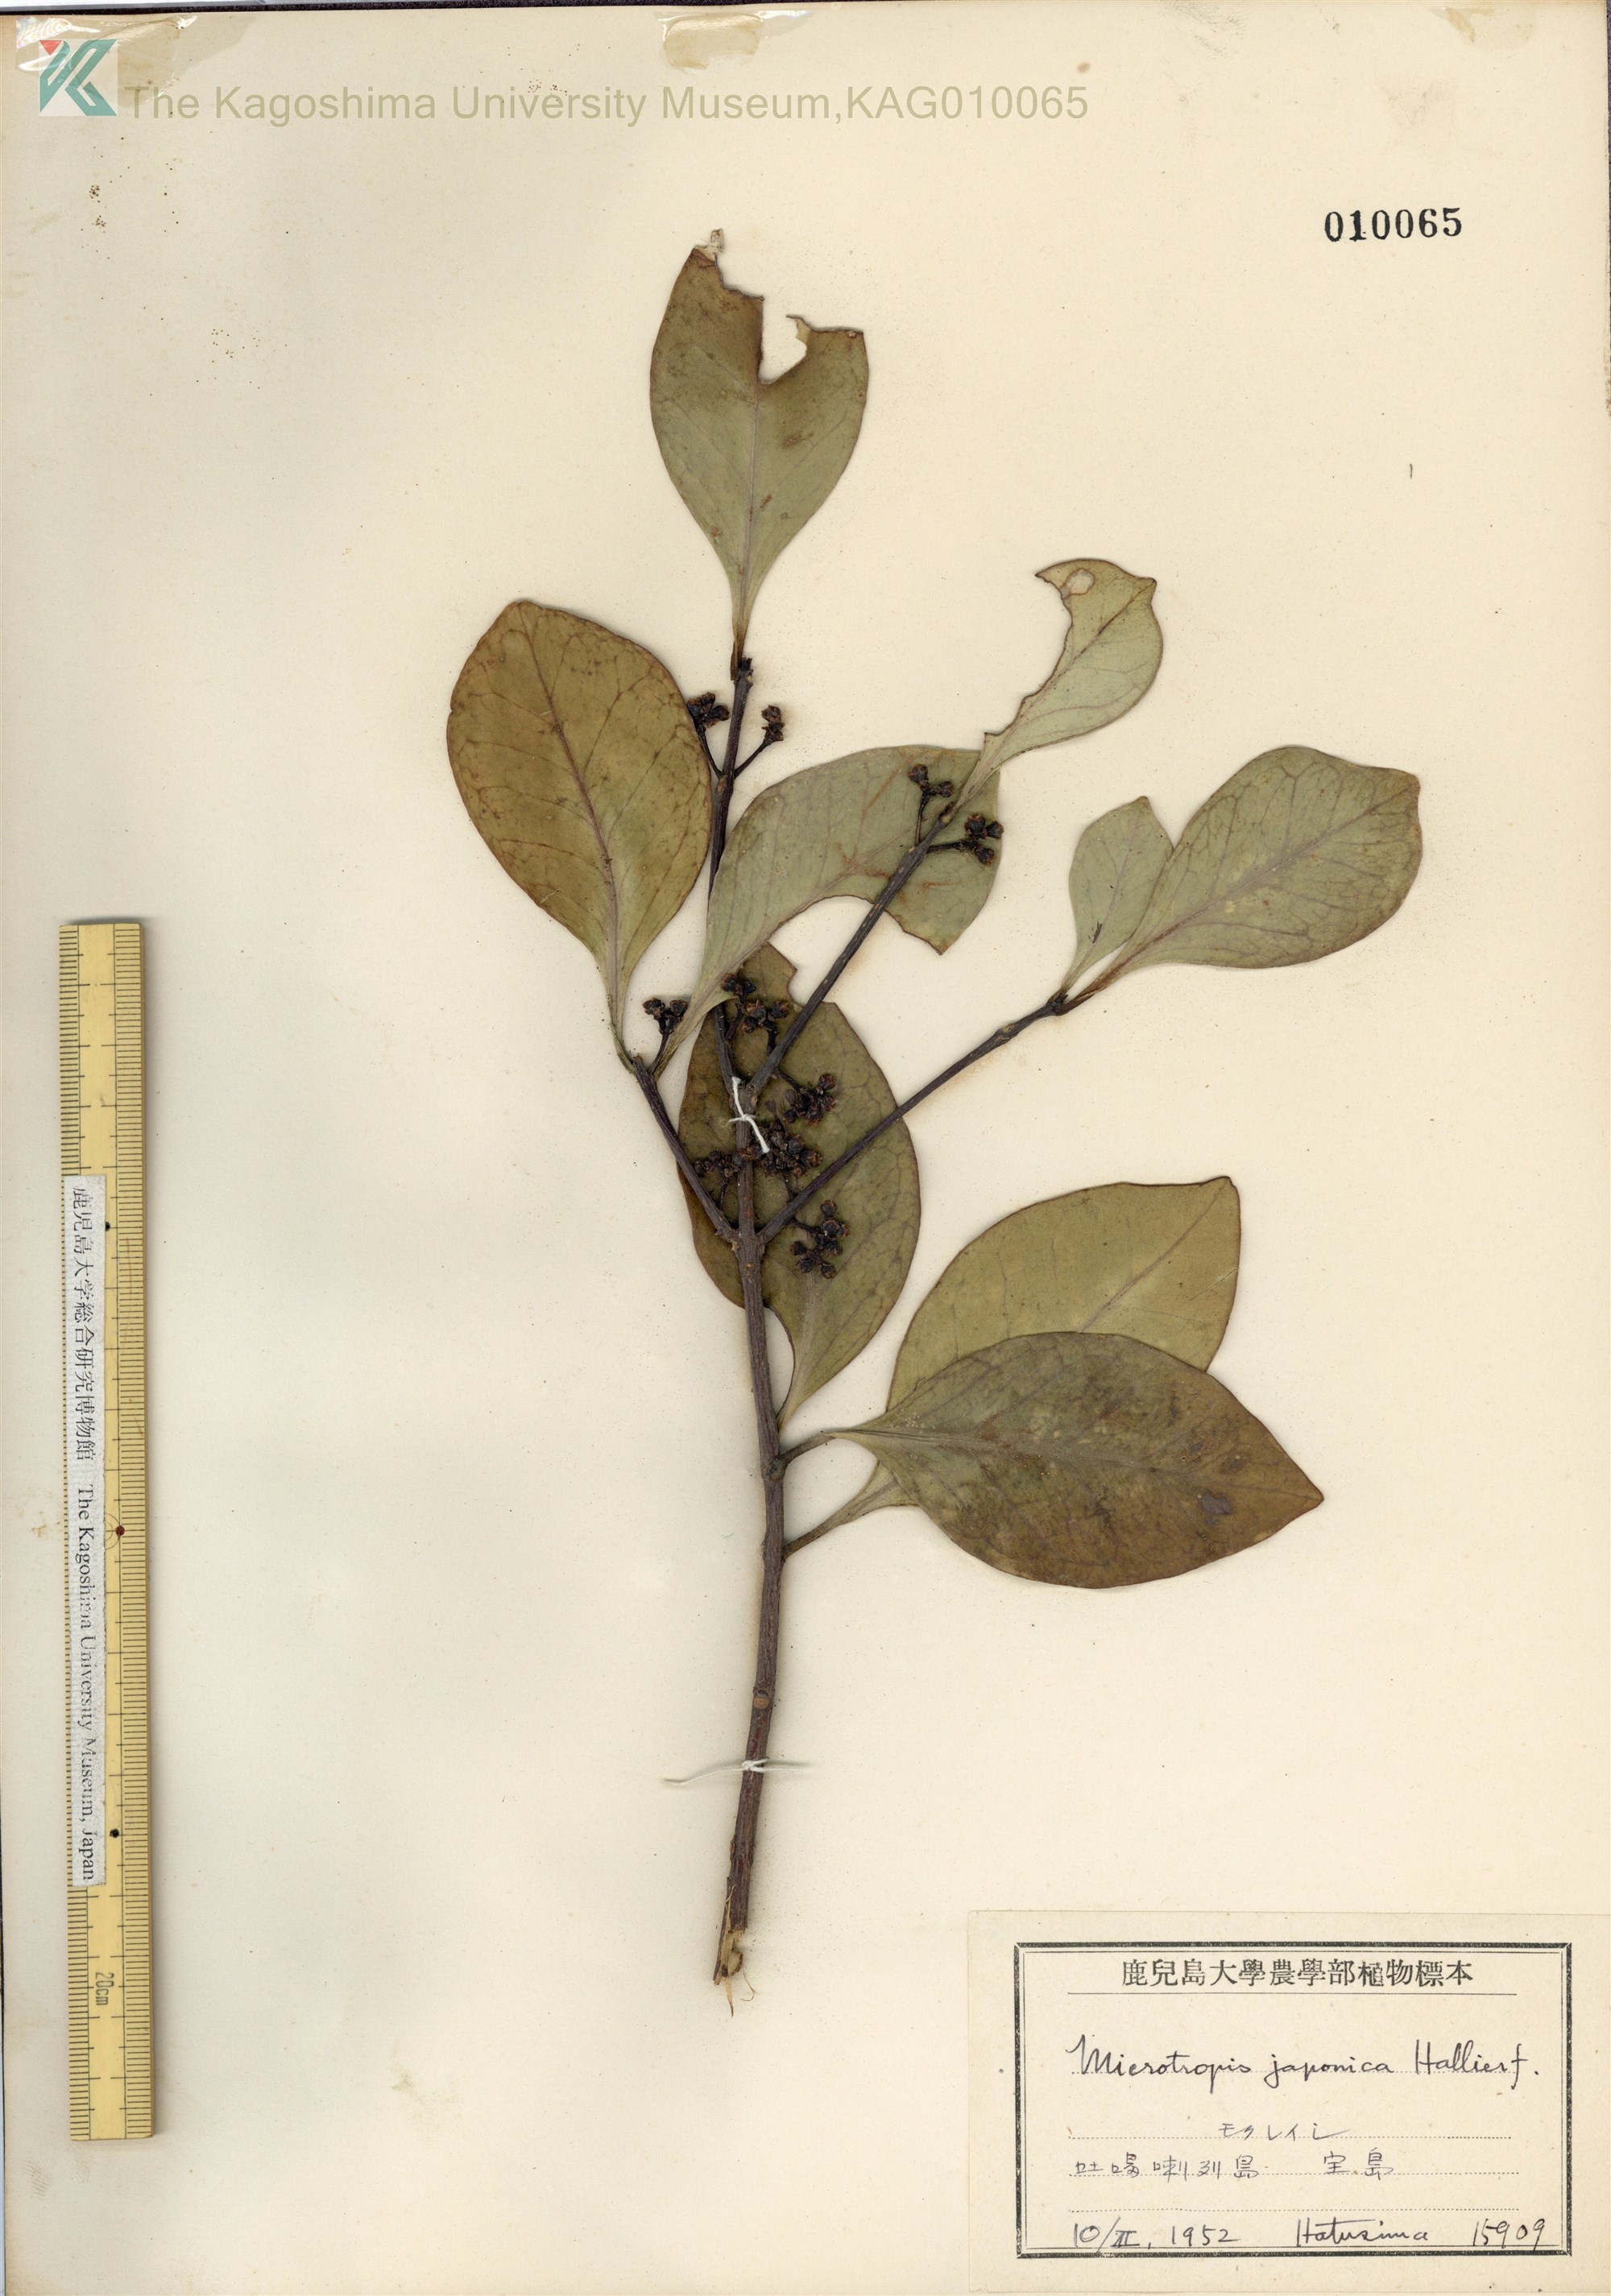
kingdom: Plantae
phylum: Tracheophyta
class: Magnoliopsida
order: Celastrales
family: Celastraceae
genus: Microtropis
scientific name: Microtropis japonica
